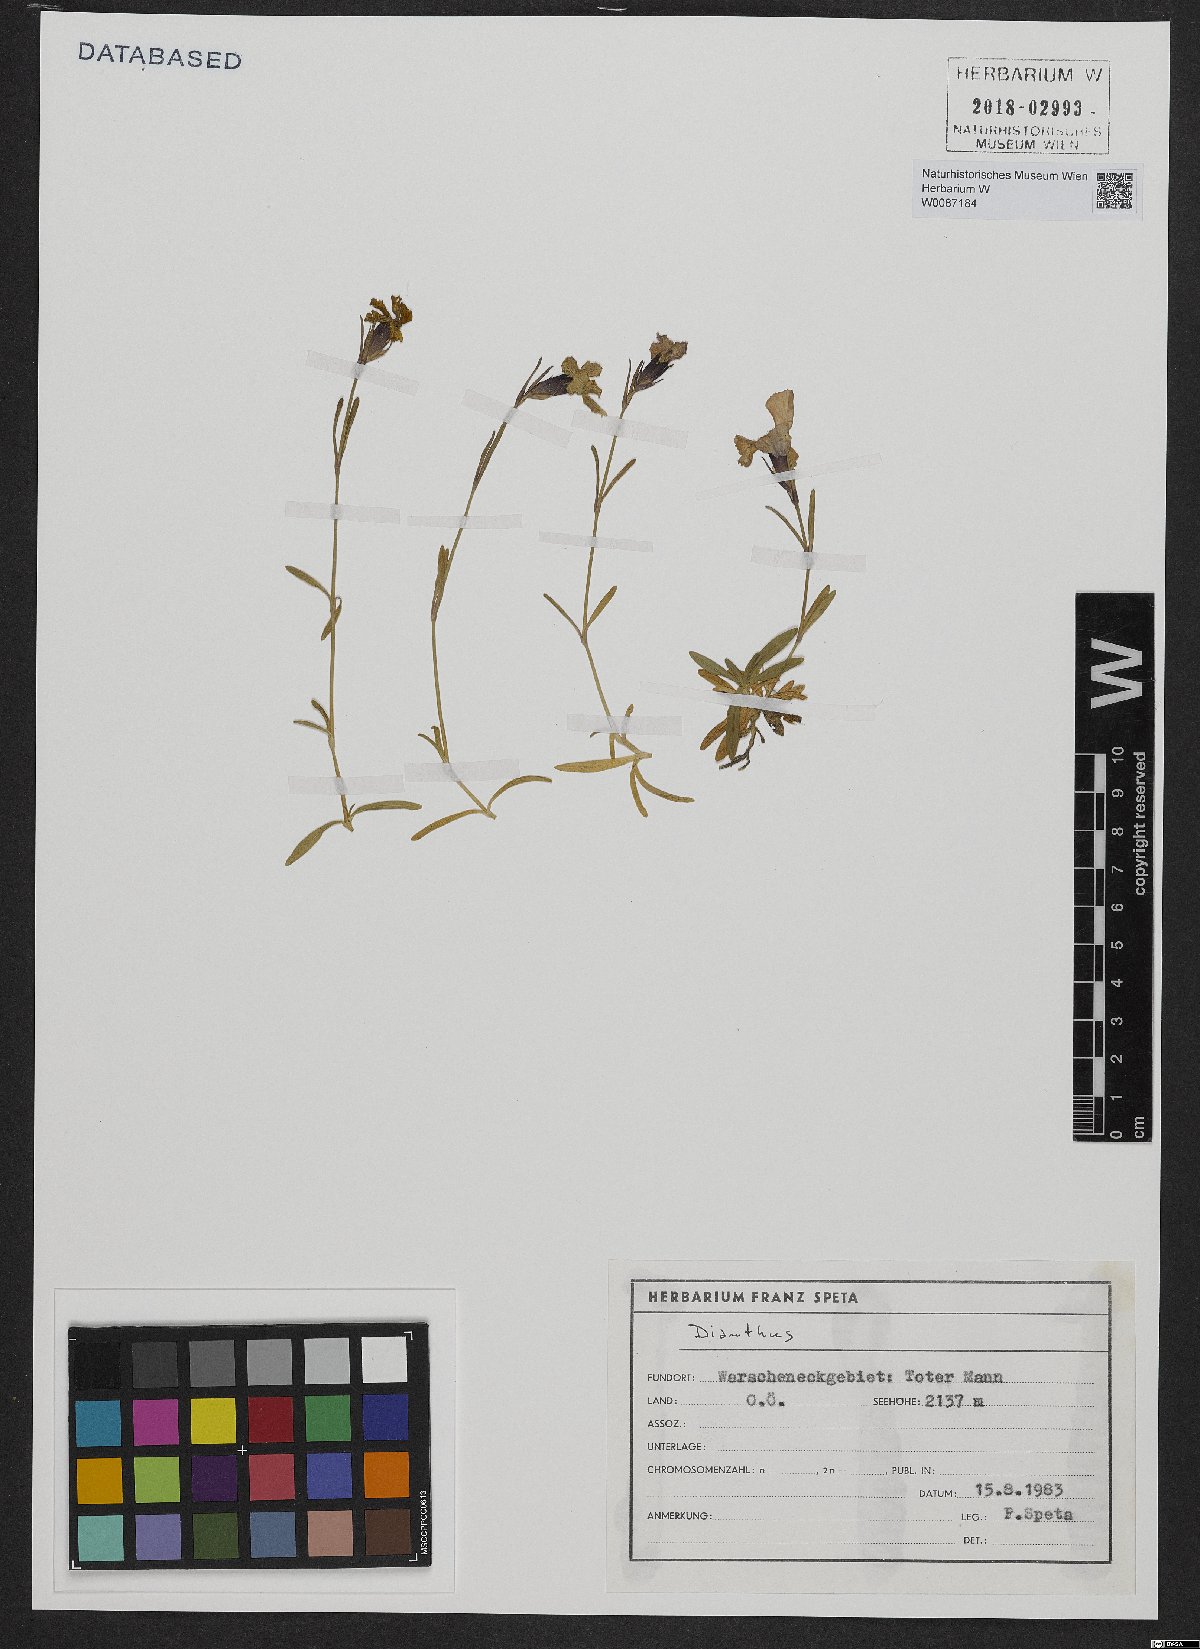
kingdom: Plantae
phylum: Tracheophyta
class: Magnoliopsida
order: Caryophyllales
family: Caryophyllaceae
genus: Dianthus
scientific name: Dianthus alpinus
